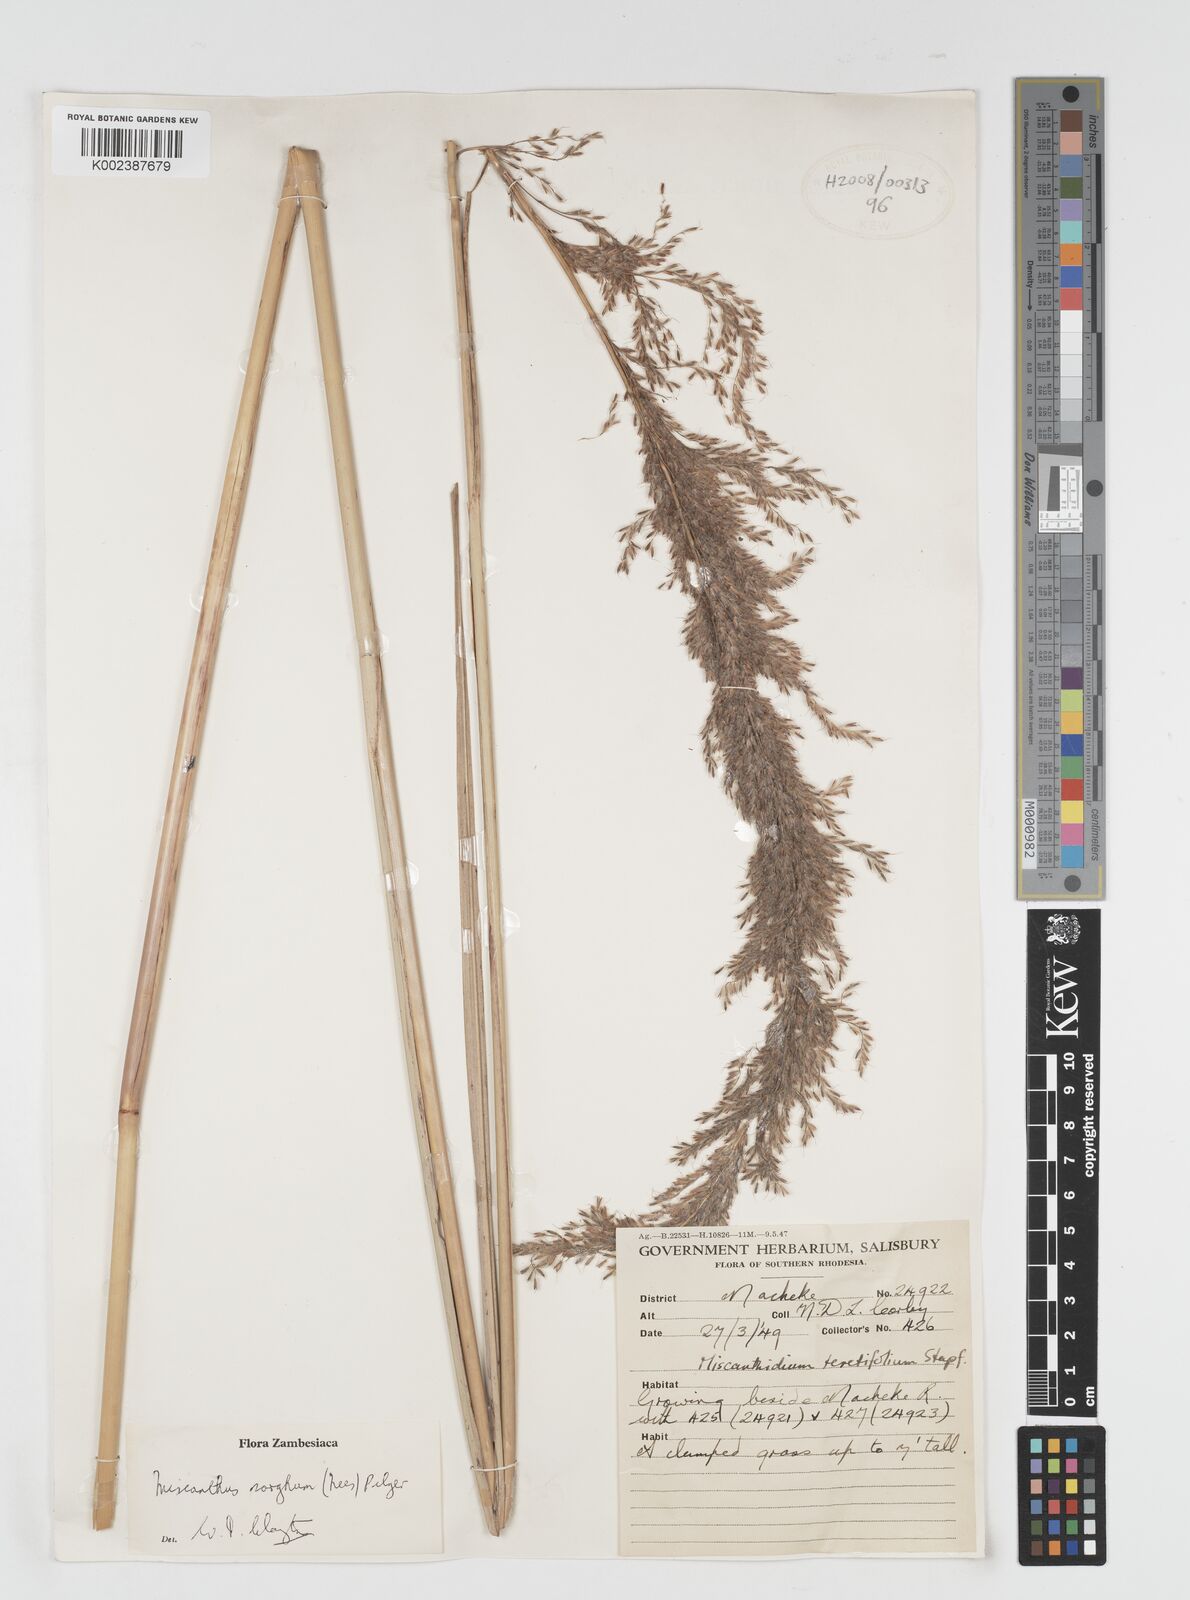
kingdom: Plantae
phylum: Tracheophyta
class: Liliopsida
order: Poales
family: Poaceae
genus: Miscanthus
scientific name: Miscanthus ecklonii
